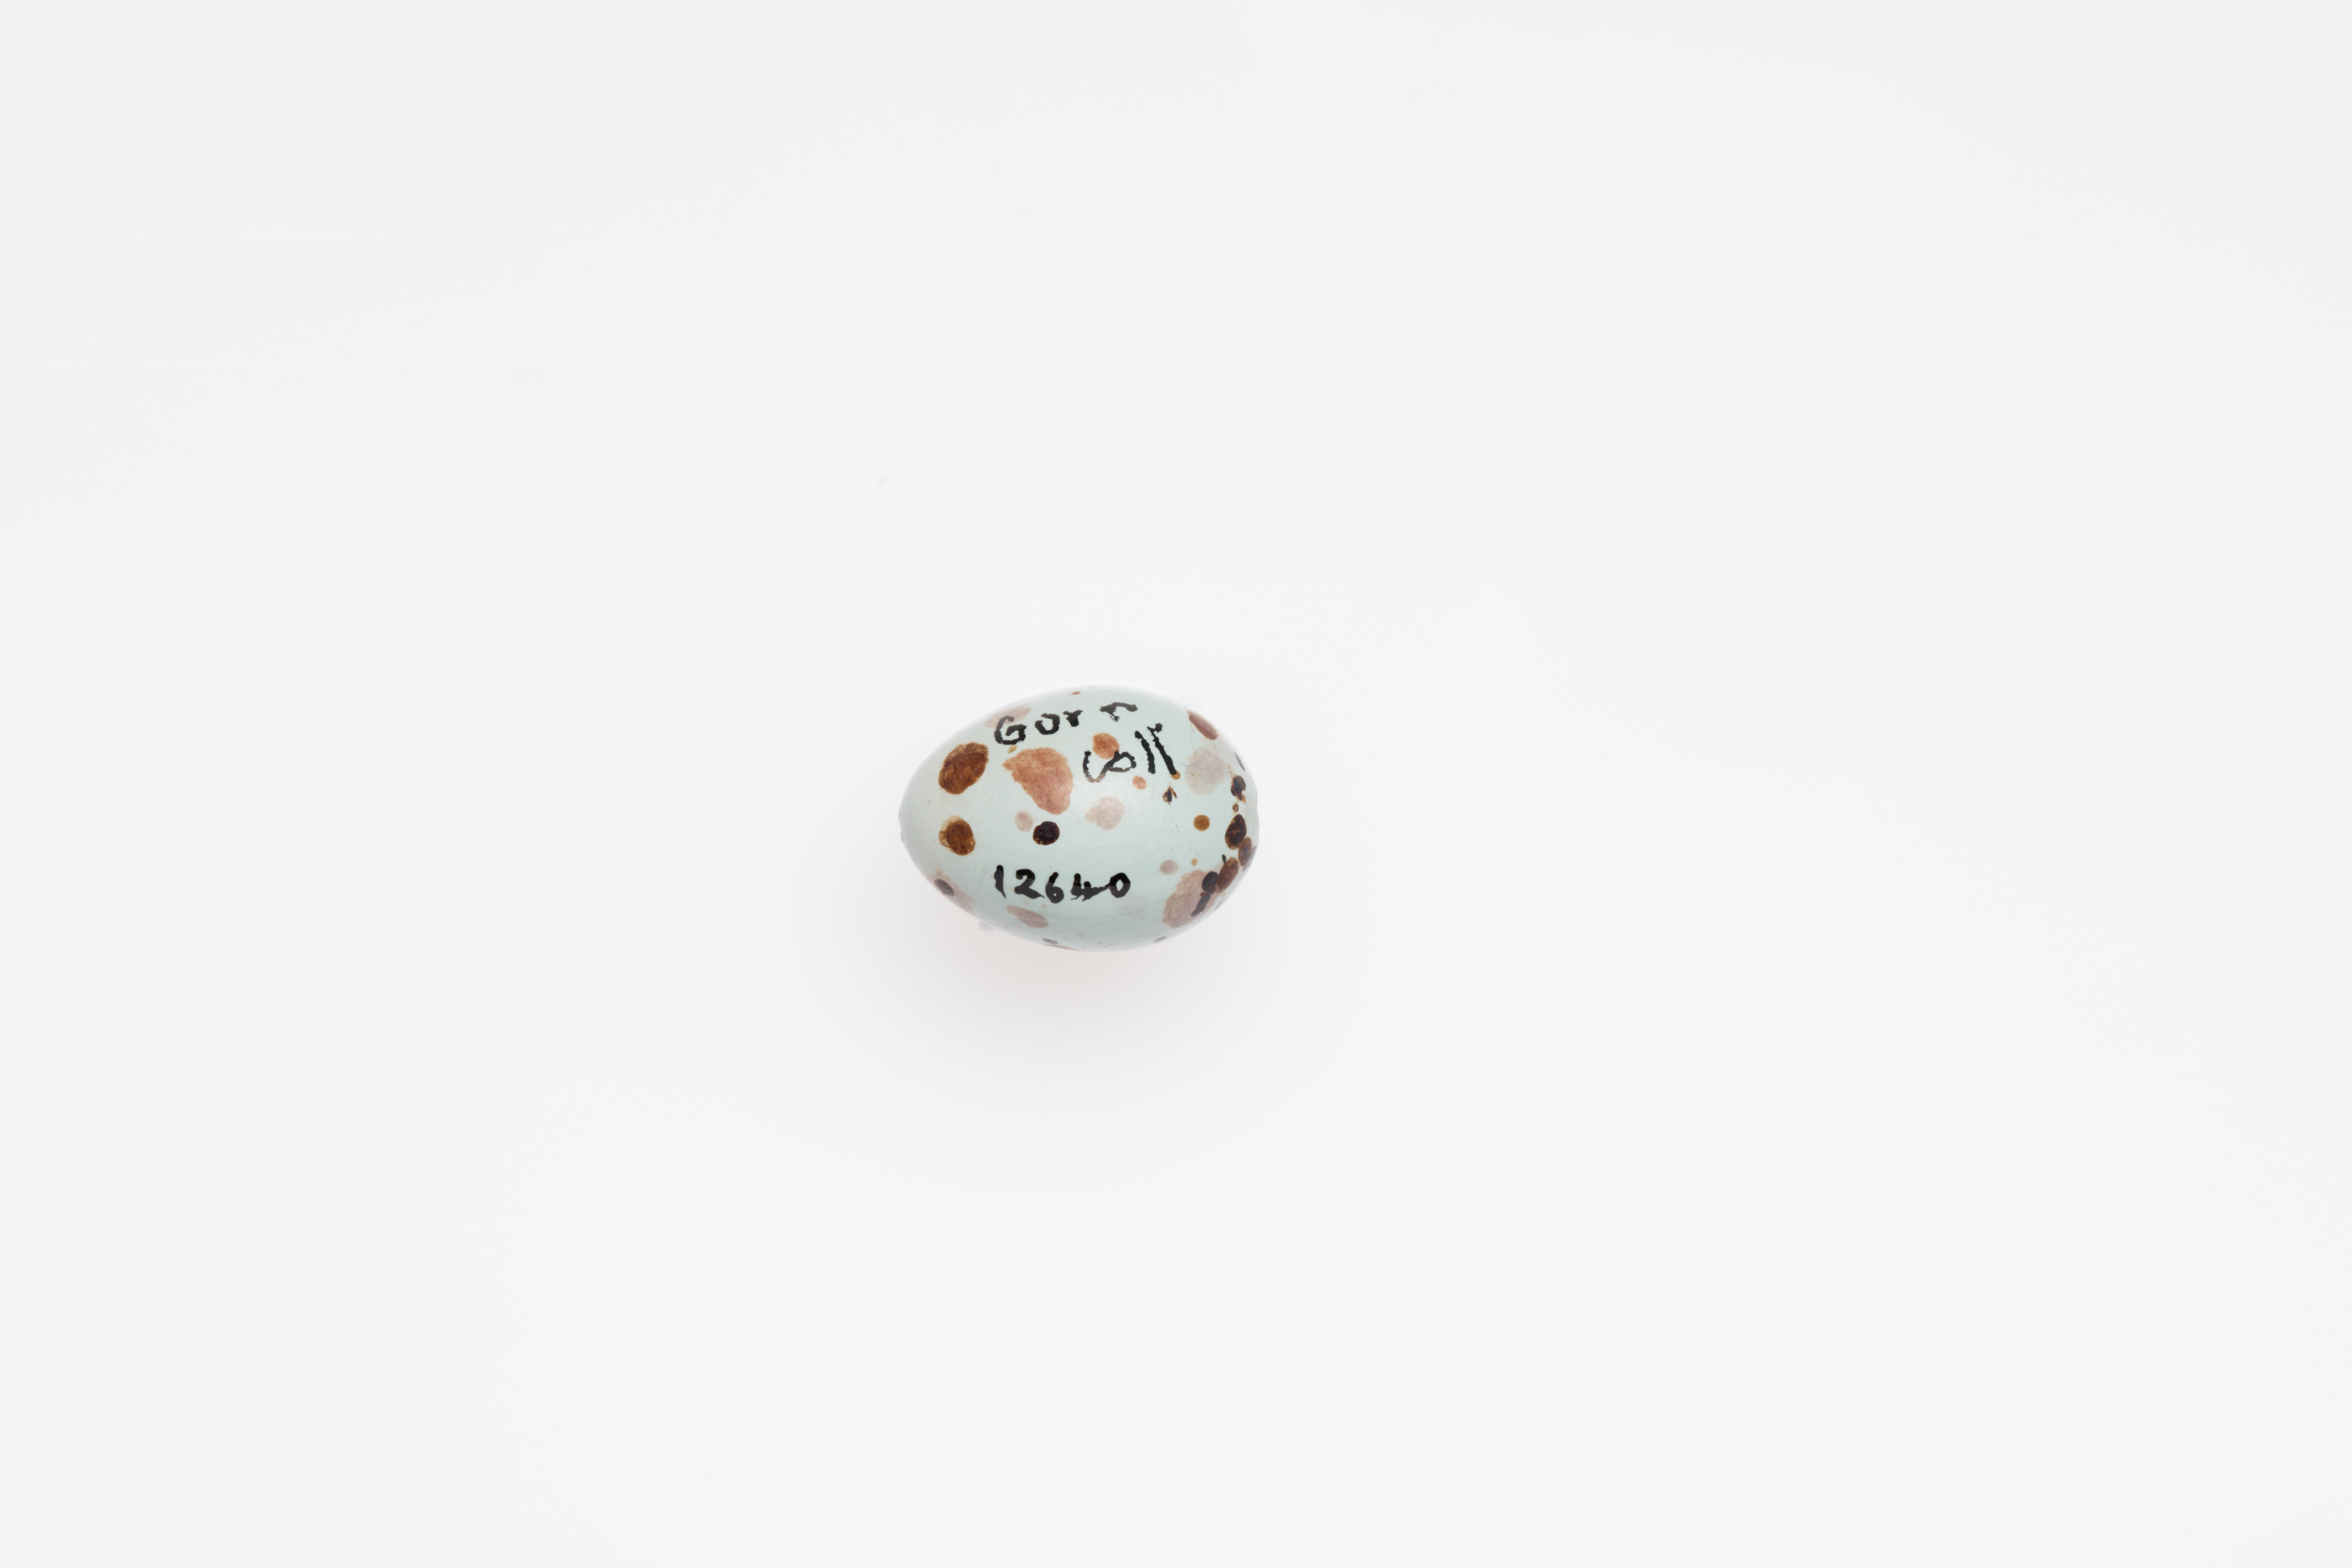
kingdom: Animalia
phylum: Chordata
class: Aves
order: Passeriformes
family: Cisticolidae
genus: Cisticola
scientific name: Cisticola exilis
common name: Golden-headed cisticola
